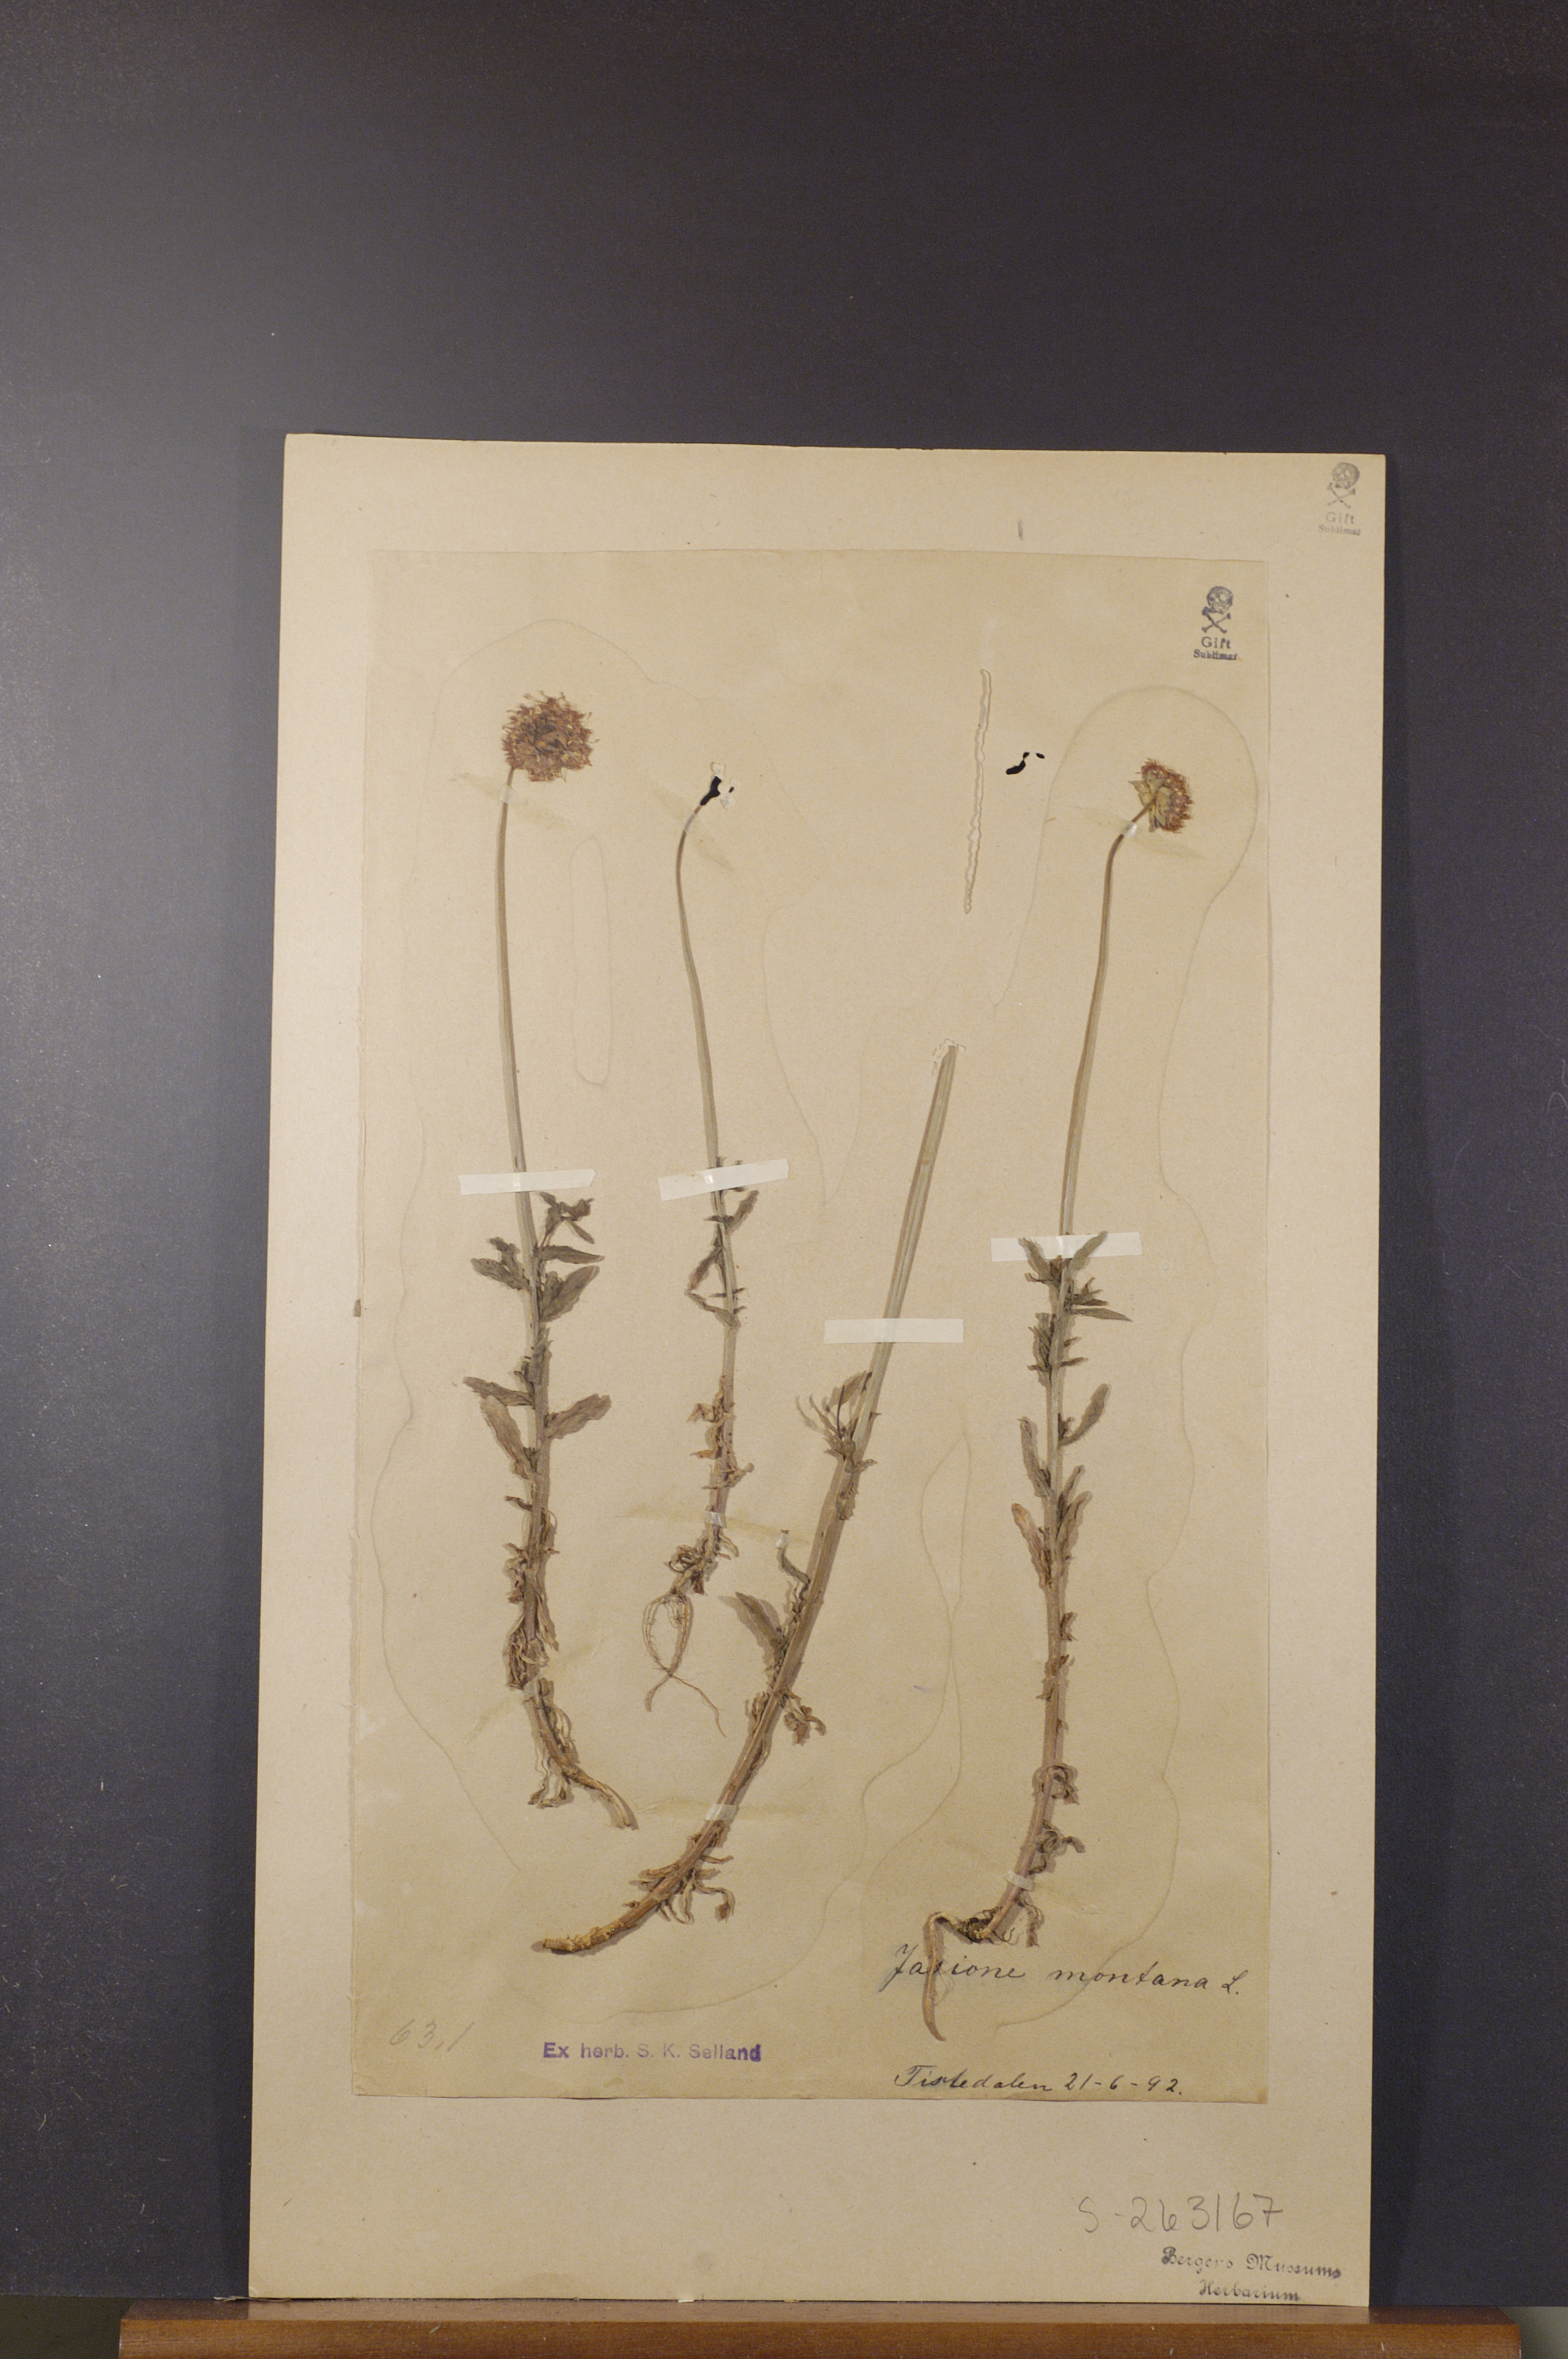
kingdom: Plantae
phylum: Tracheophyta
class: Magnoliopsida
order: Asterales
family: Campanulaceae
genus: Jasione
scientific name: Jasione montana
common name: Sheep's-bit
